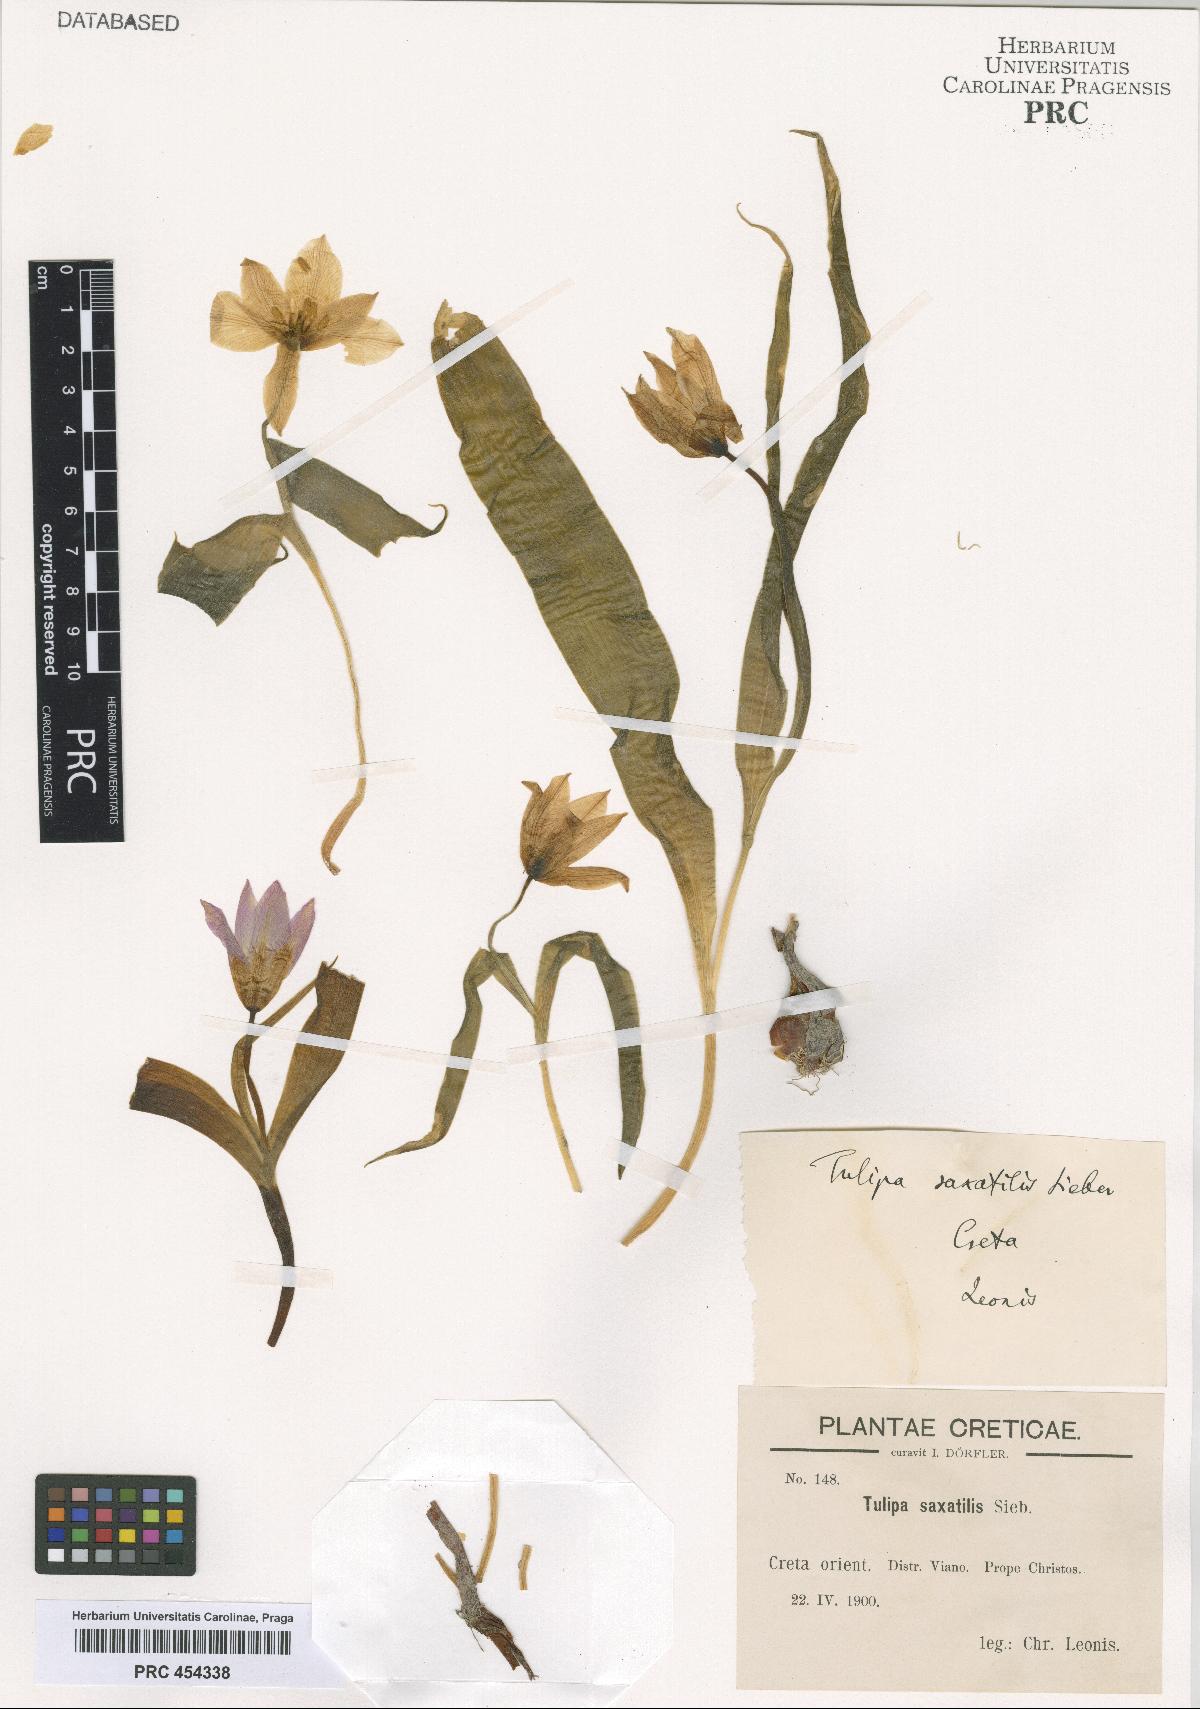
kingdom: Plantae
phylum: Tracheophyta
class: Liliopsida
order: Liliales
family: Liliaceae
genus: Tulipa
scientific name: Tulipa saxatilis
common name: Cretan tulip
